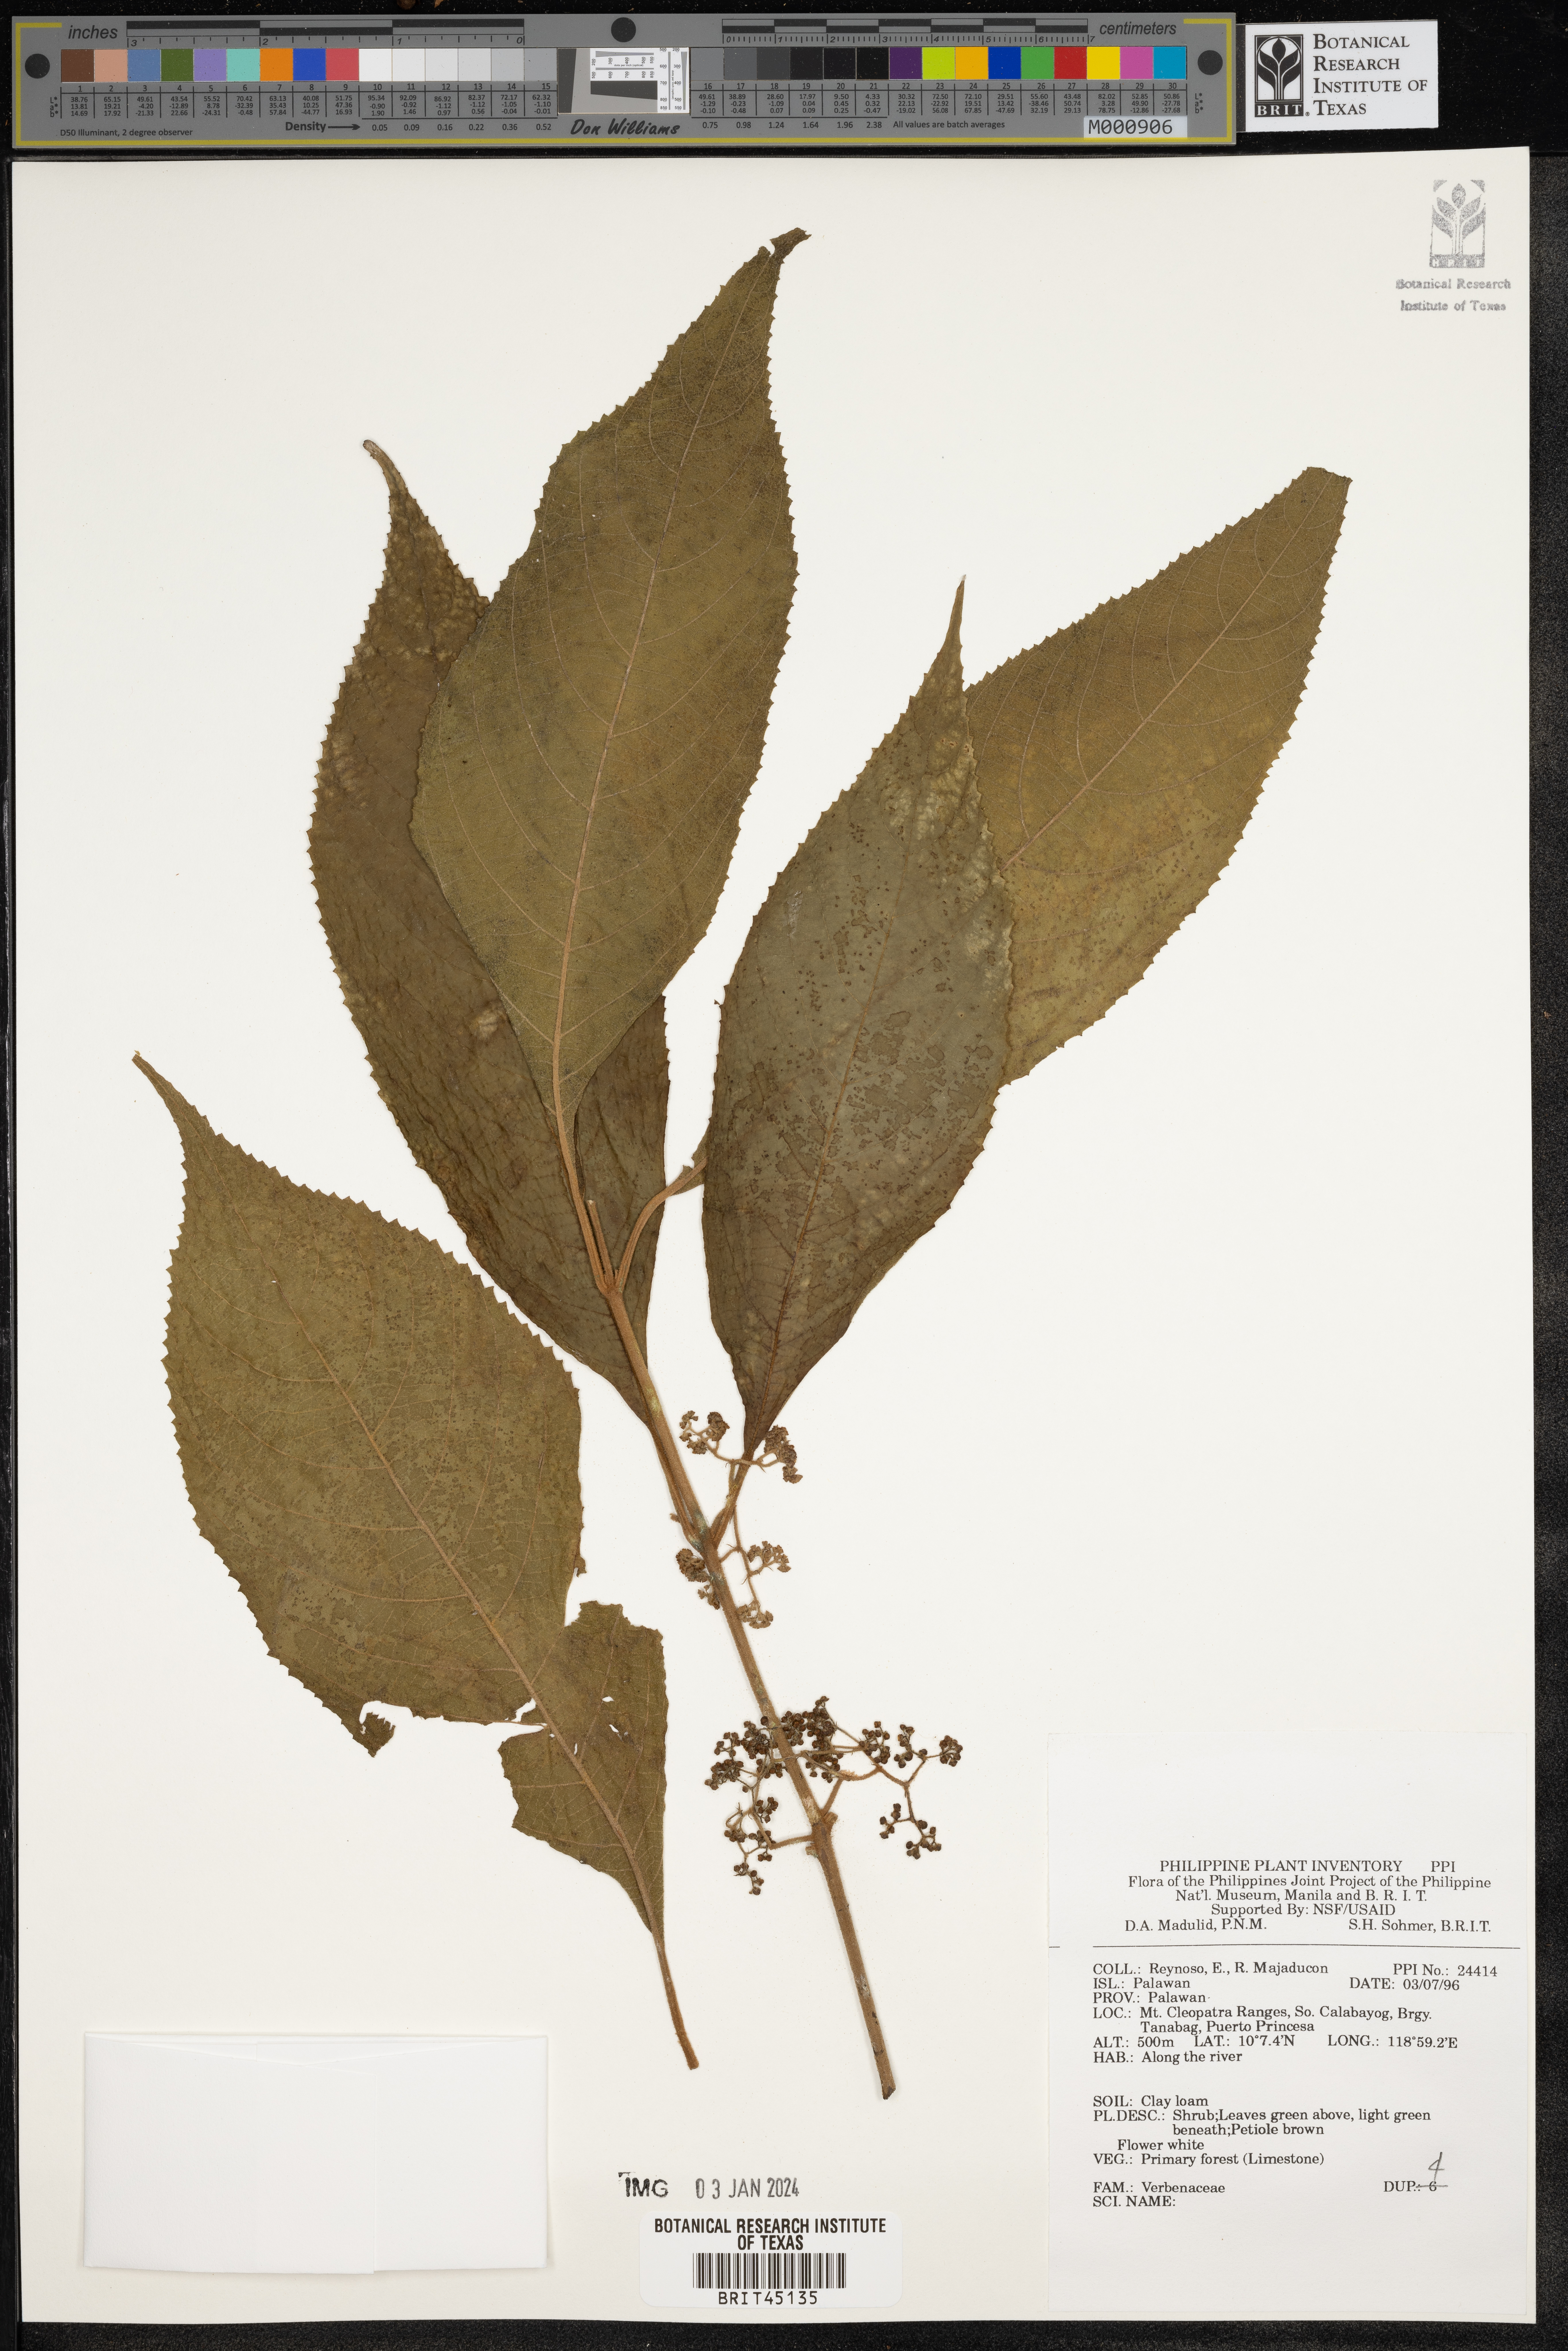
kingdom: Plantae
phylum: Tracheophyta
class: Magnoliopsida
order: Lamiales
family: Verbenaceae
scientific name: Verbenaceae
